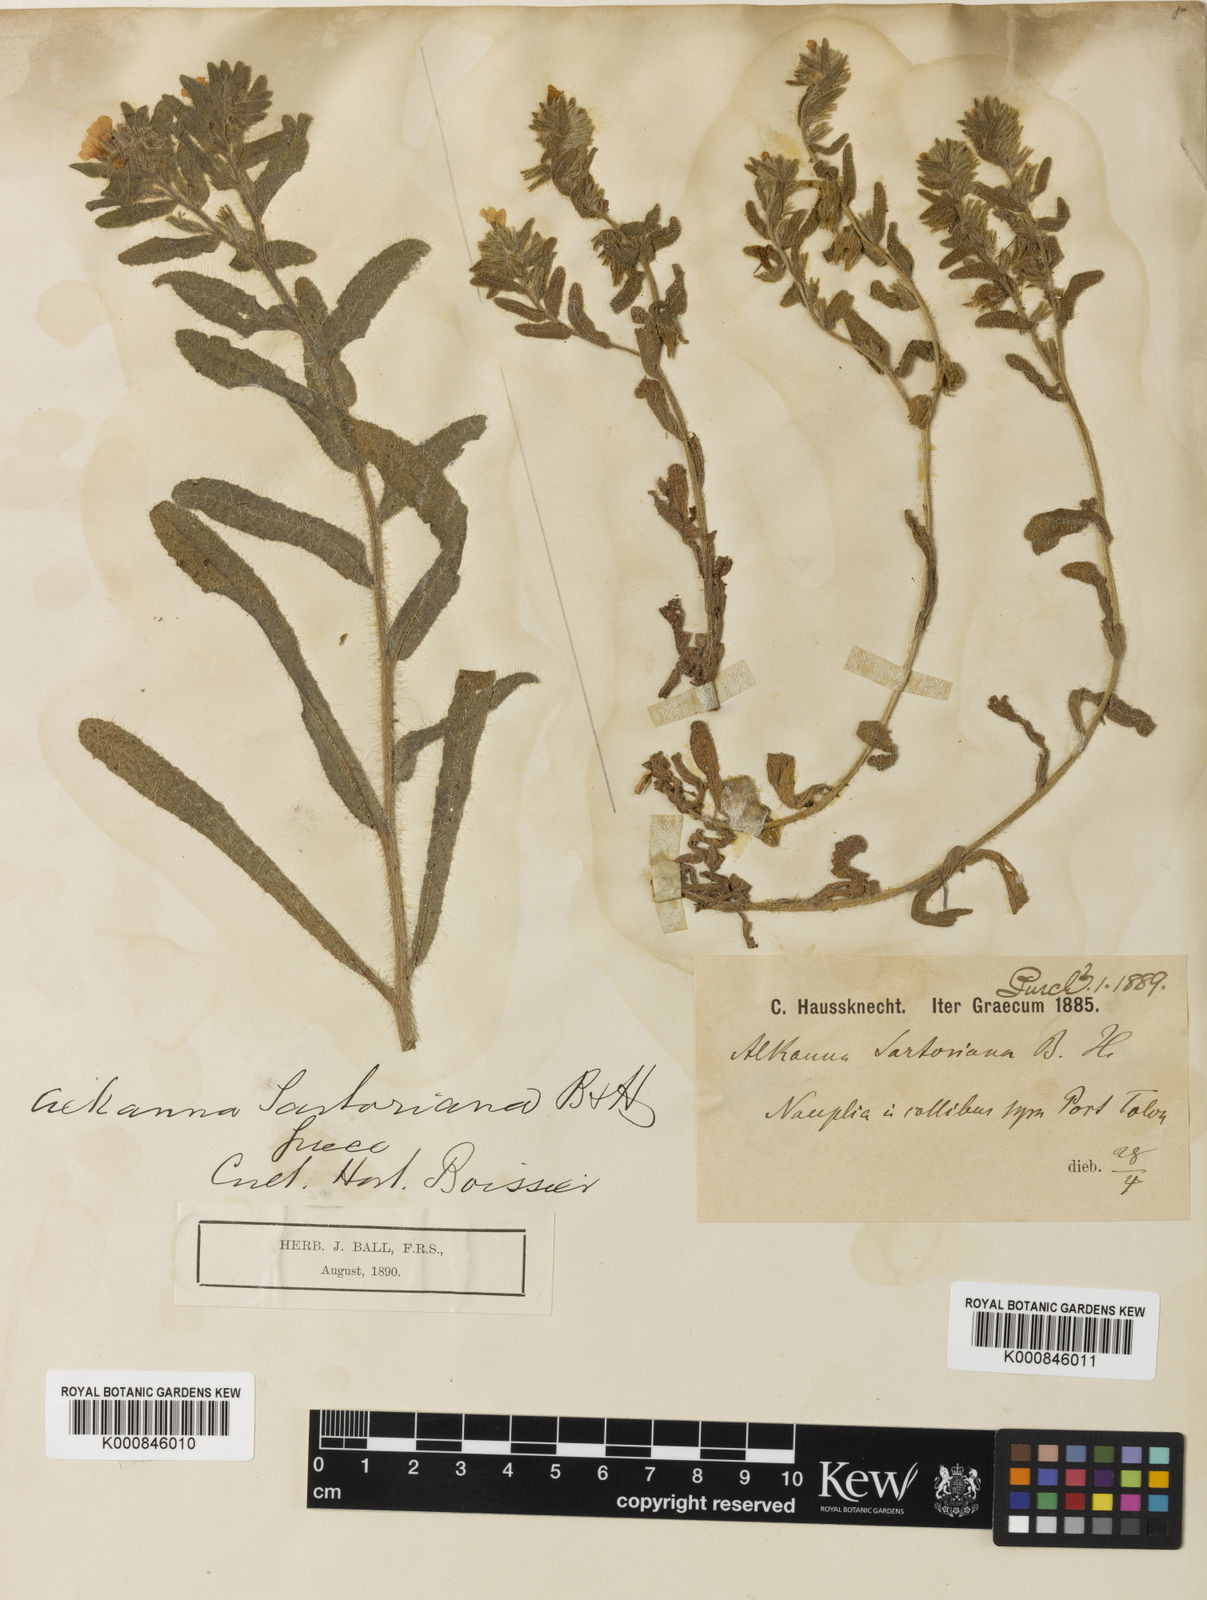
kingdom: Plantae
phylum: Tracheophyta
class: Magnoliopsida
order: Boraginales
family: Boraginaceae
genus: Alkanna
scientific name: Alkanna sartoriana
